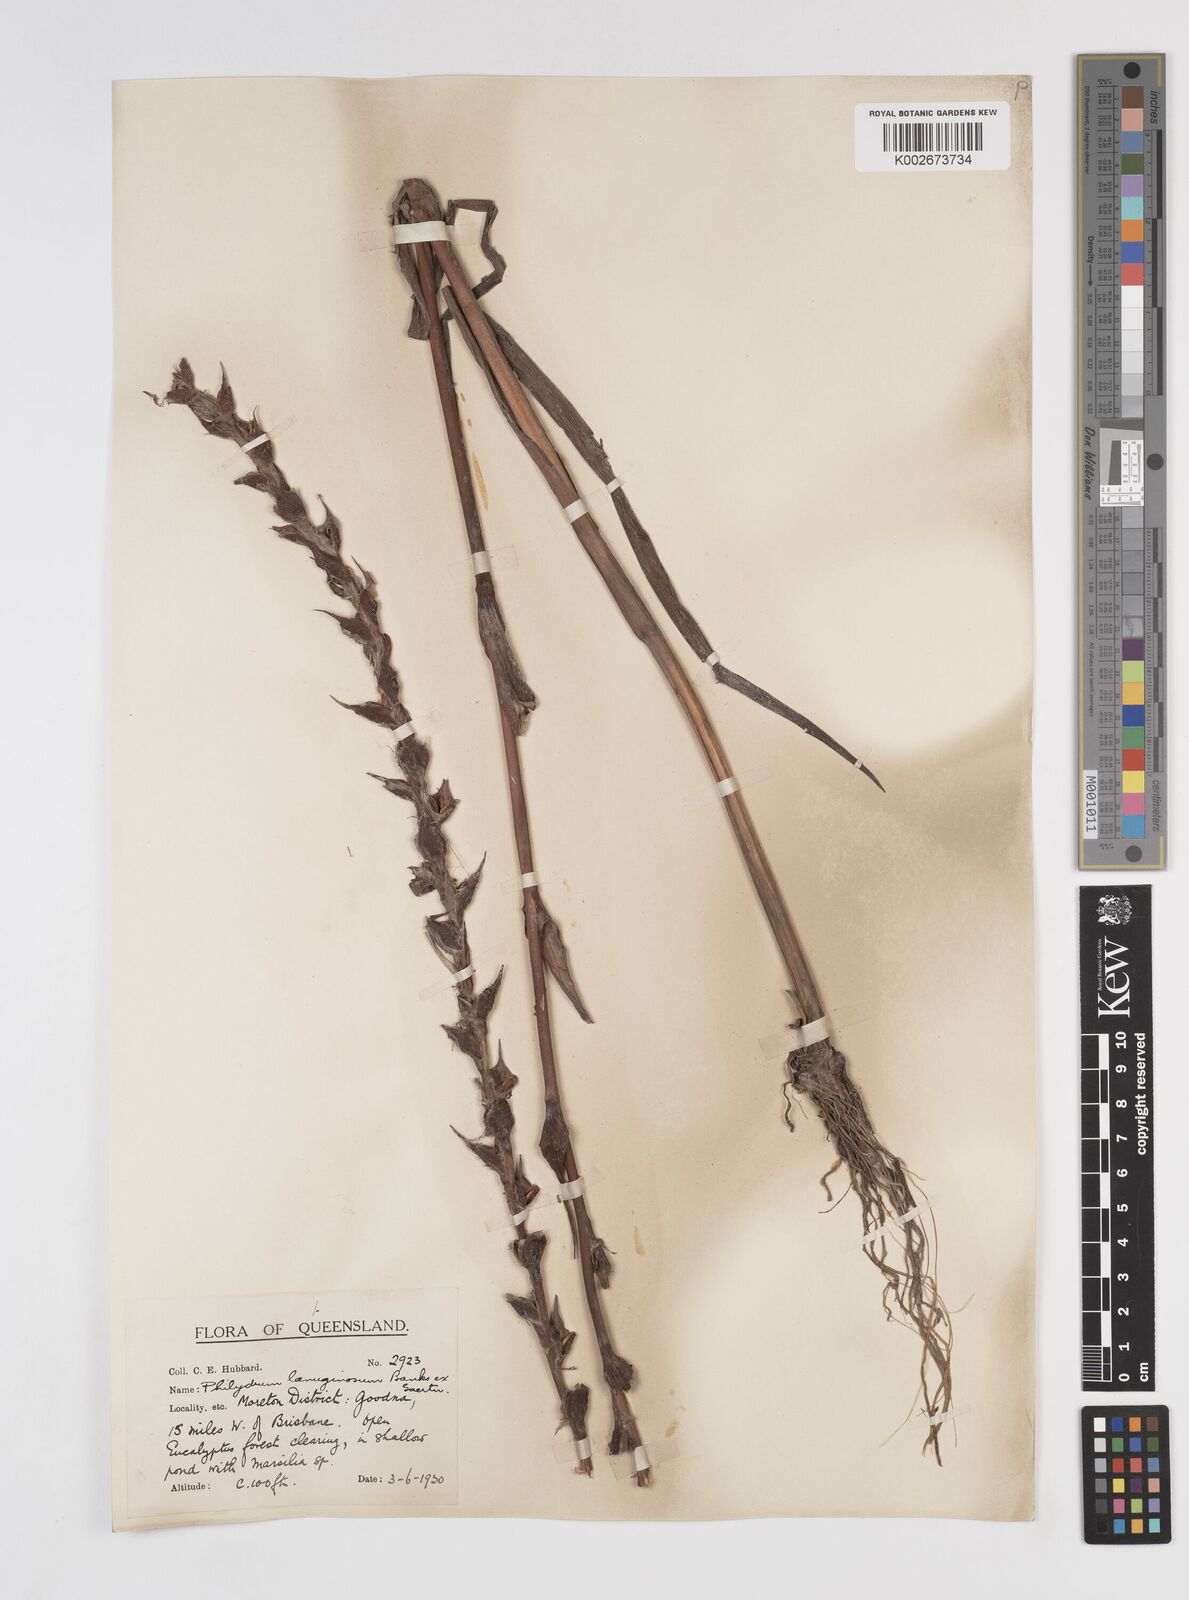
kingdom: Plantae
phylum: Tracheophyta
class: Liliopsida
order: Commelinales
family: Philydraceae
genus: Philydrum
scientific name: Philydrum lanuginosum
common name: Woolly frog's mouth
